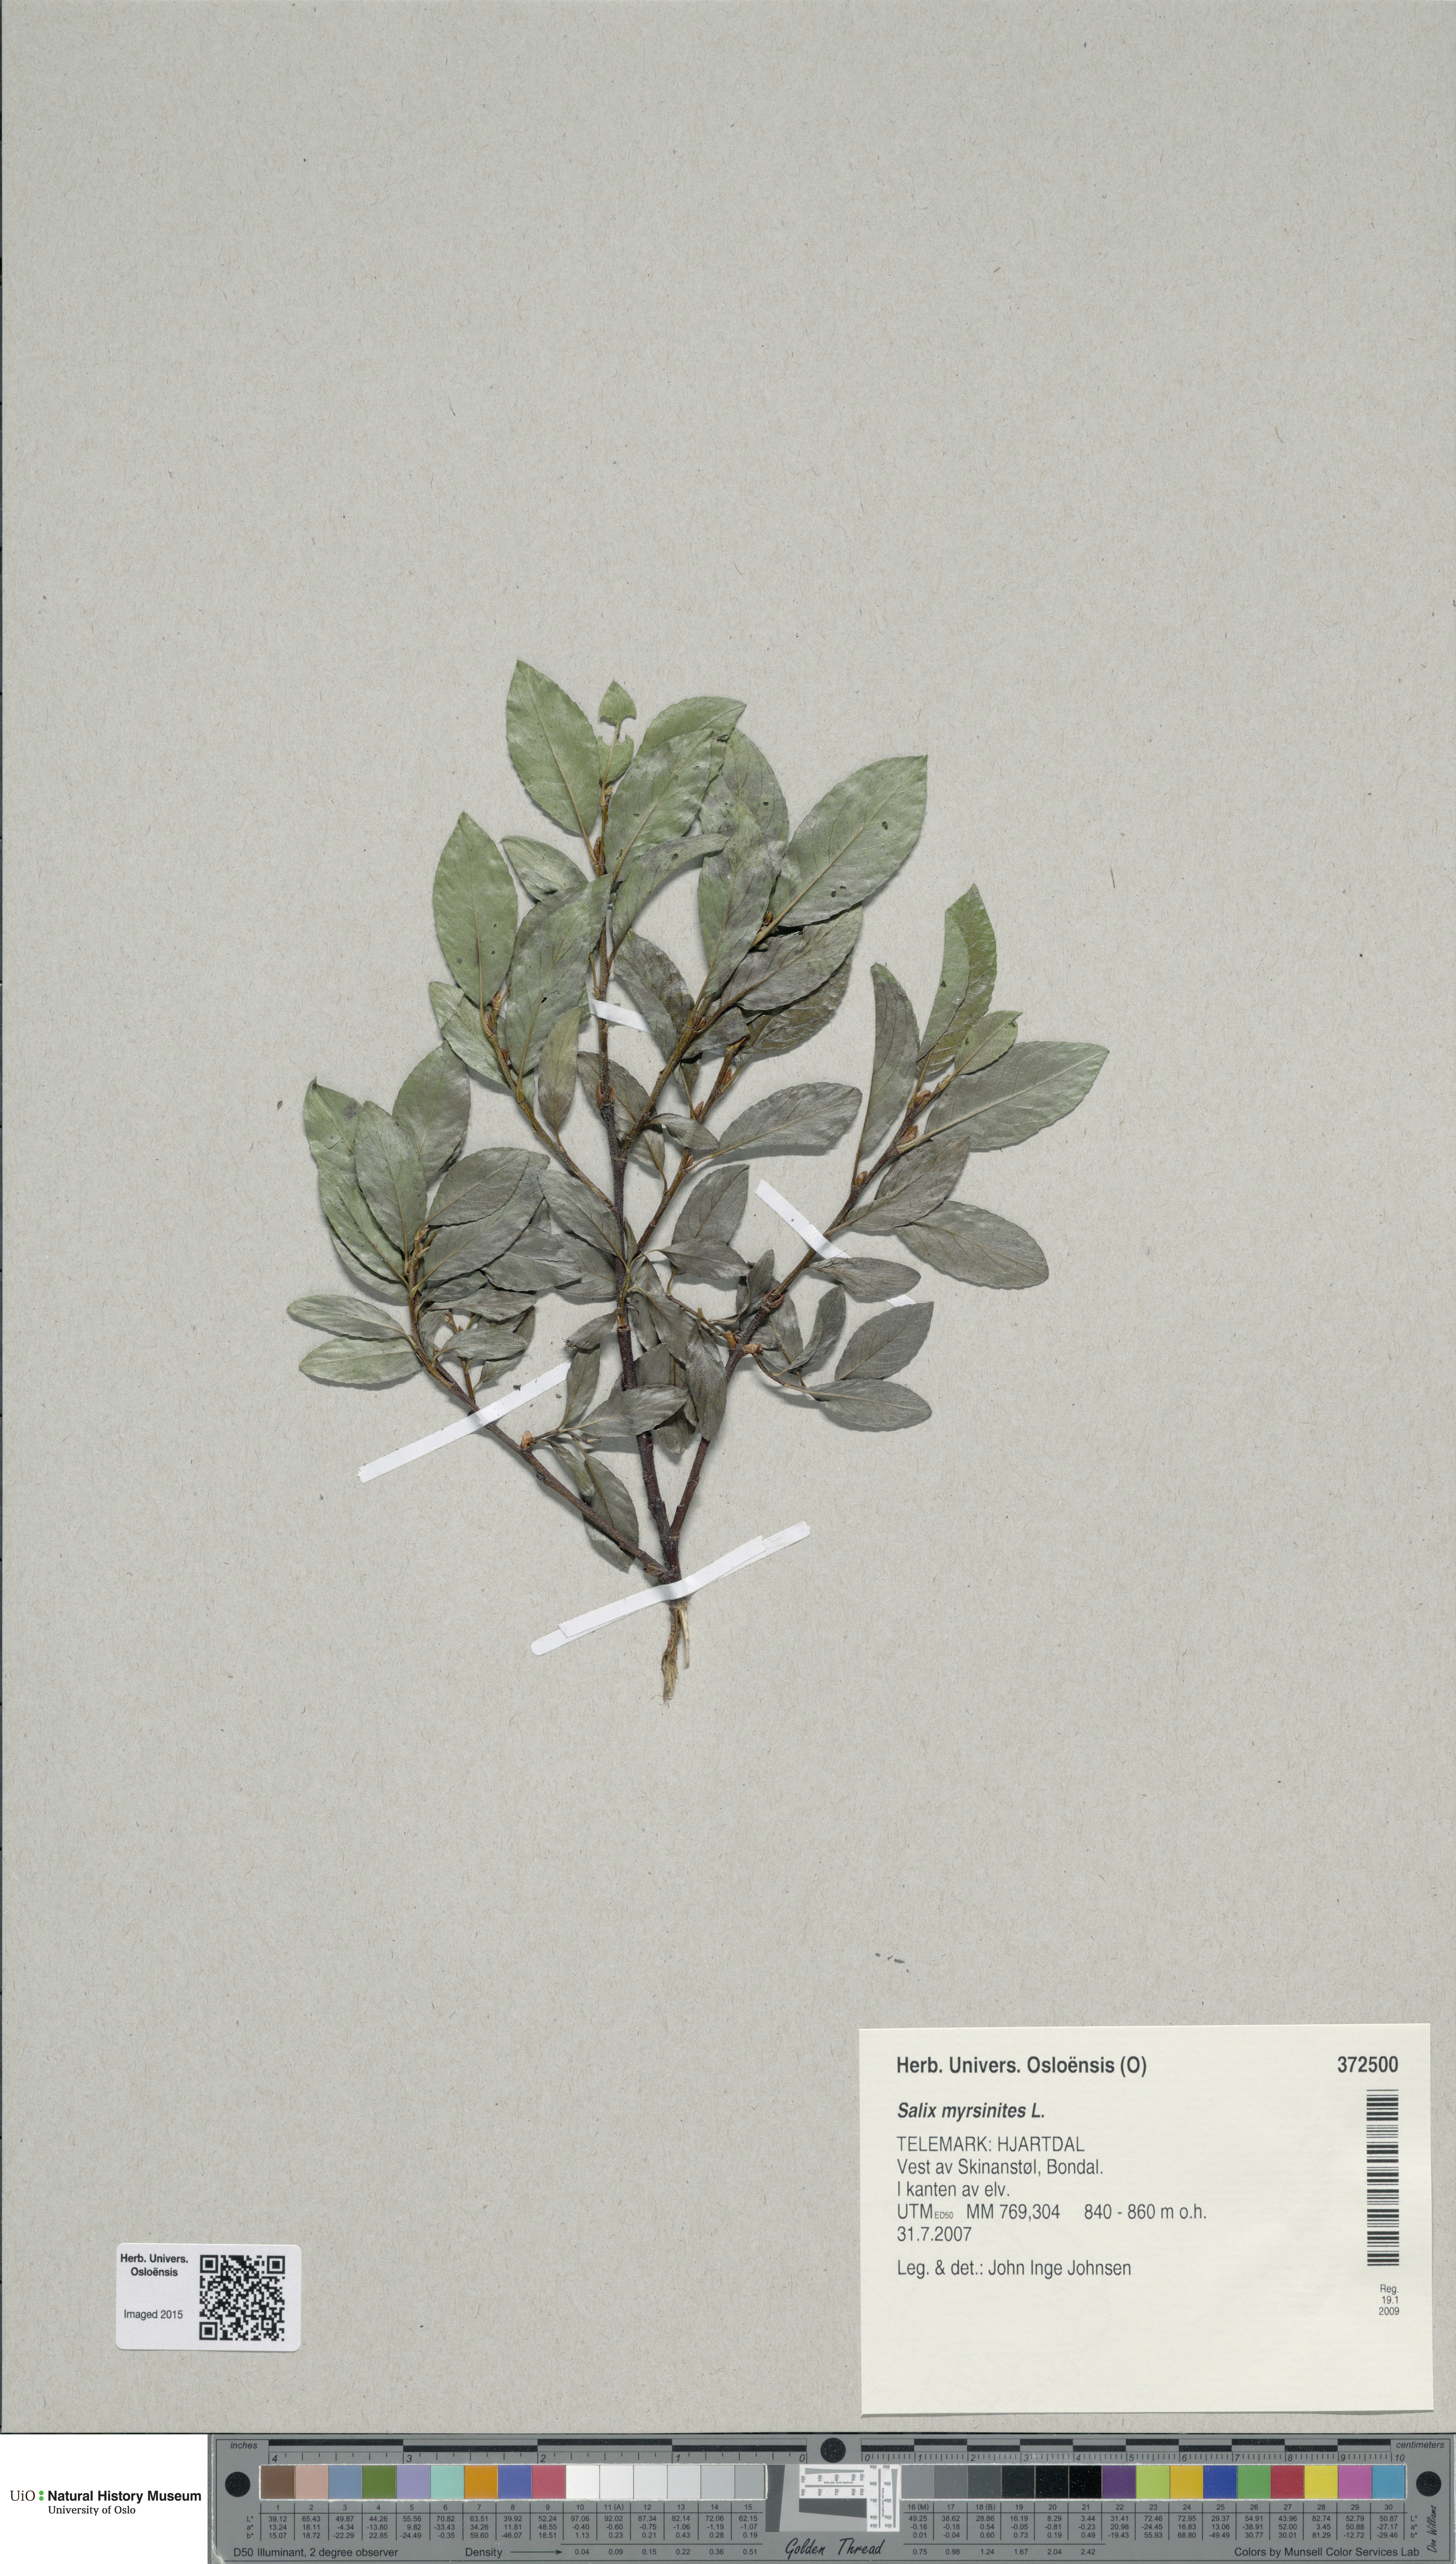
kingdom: Plantae
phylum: Tracheophyta
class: Magnoliopsida
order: Malpighiales
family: Salicaceae
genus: Salix
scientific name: Salix myrsinites
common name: Myrtle willow
